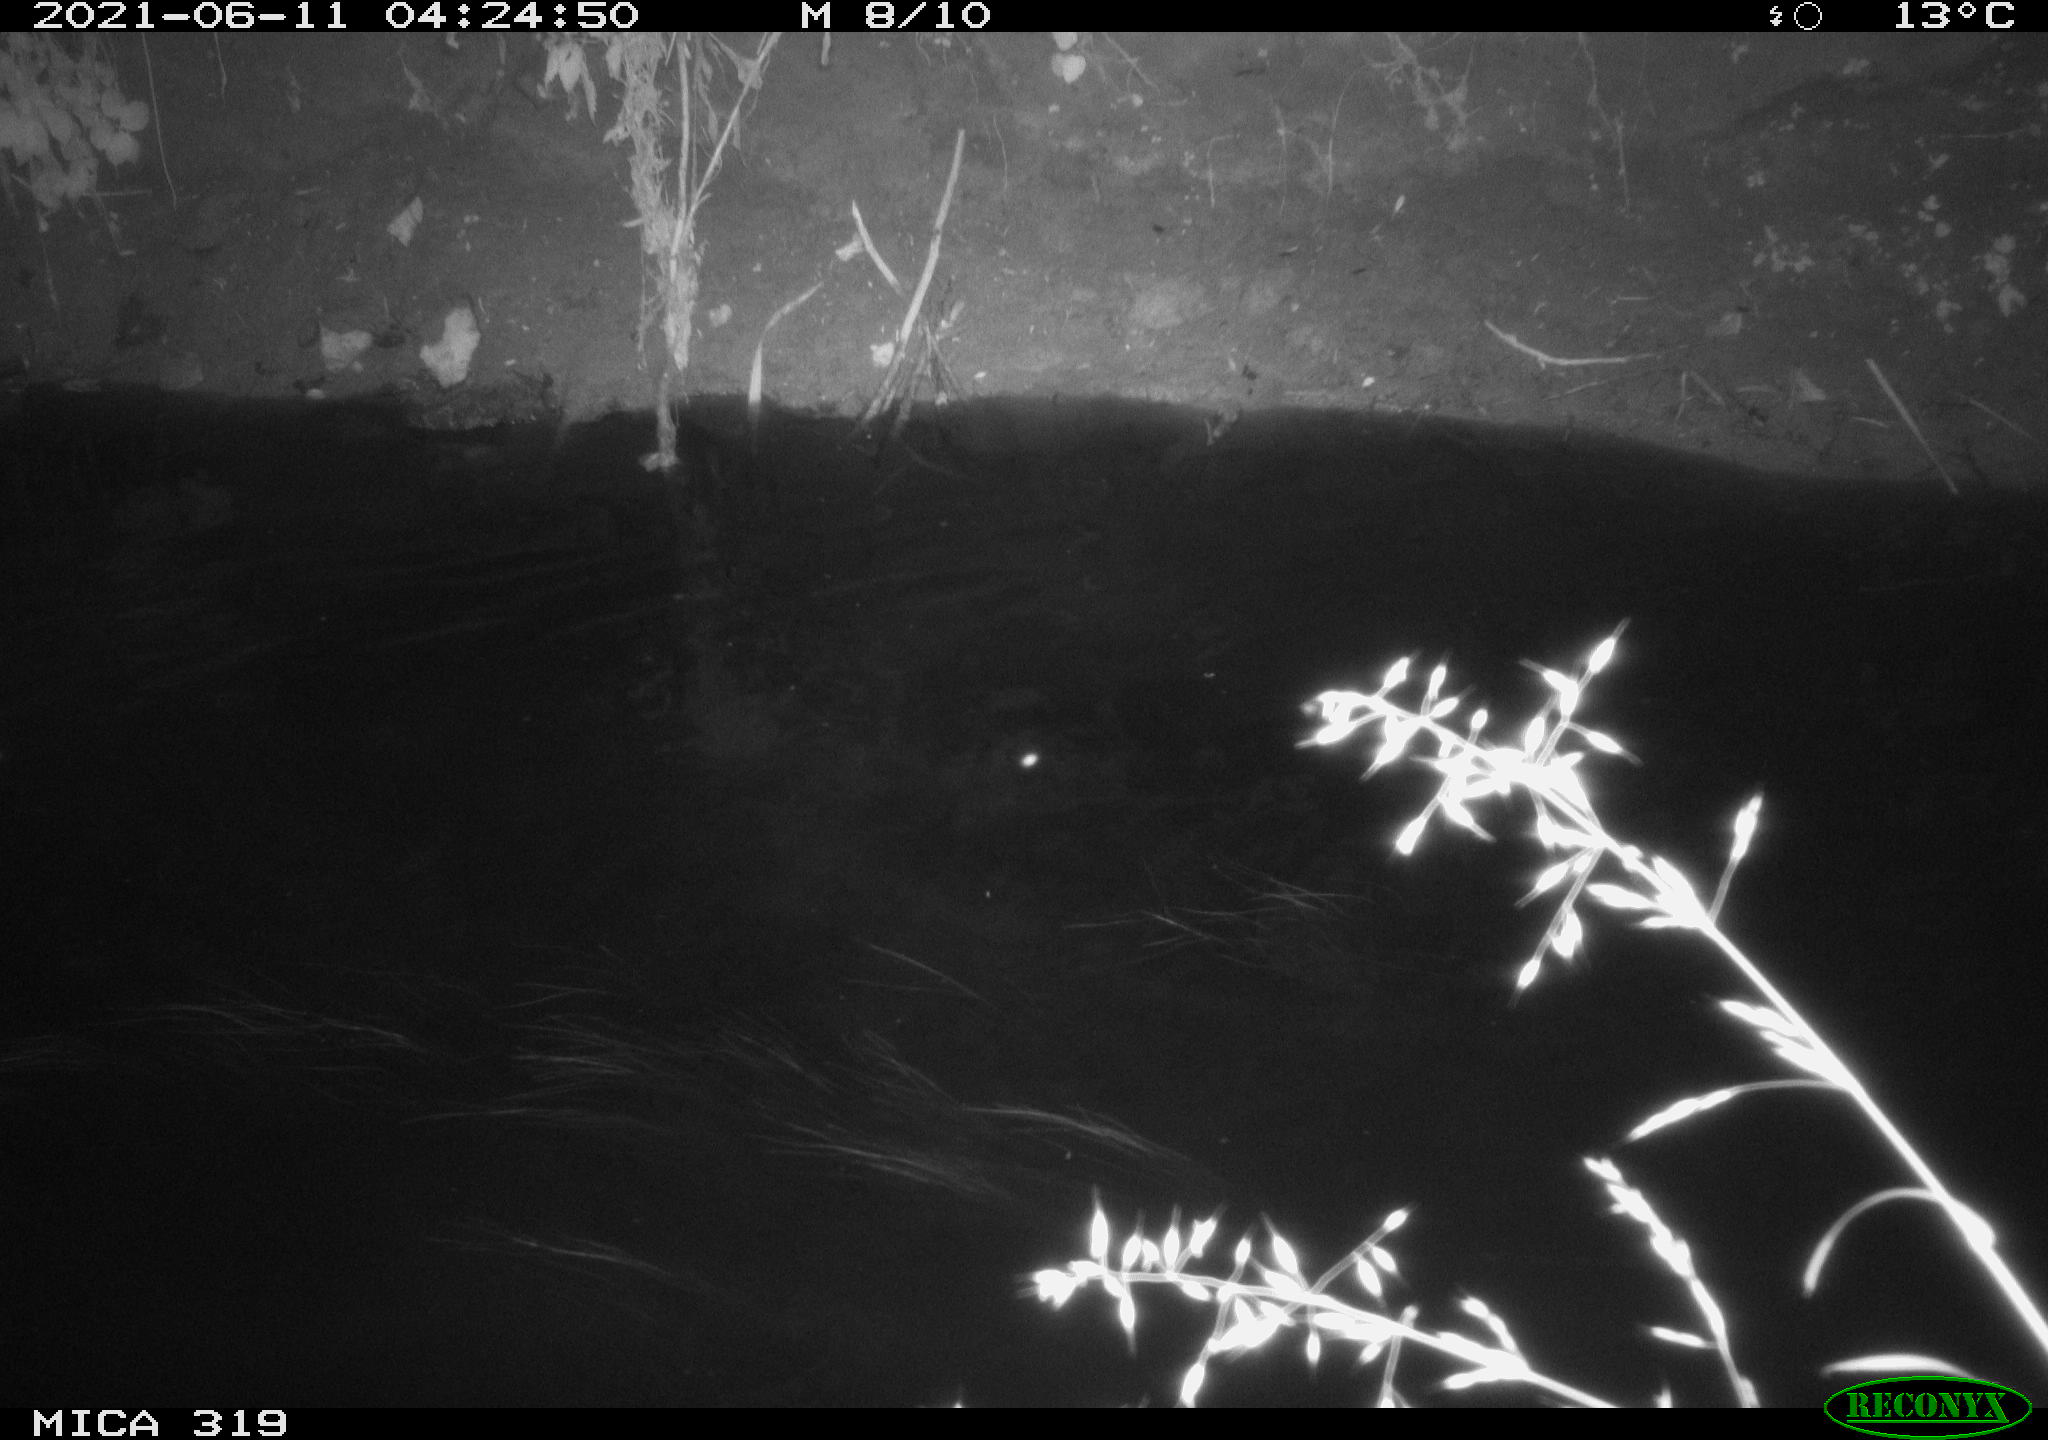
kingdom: Animalia
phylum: Chordata
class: Aves
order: Anseriformes
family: Anatidae
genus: Anas
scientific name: Anas platyrhynchos
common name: Mallard
